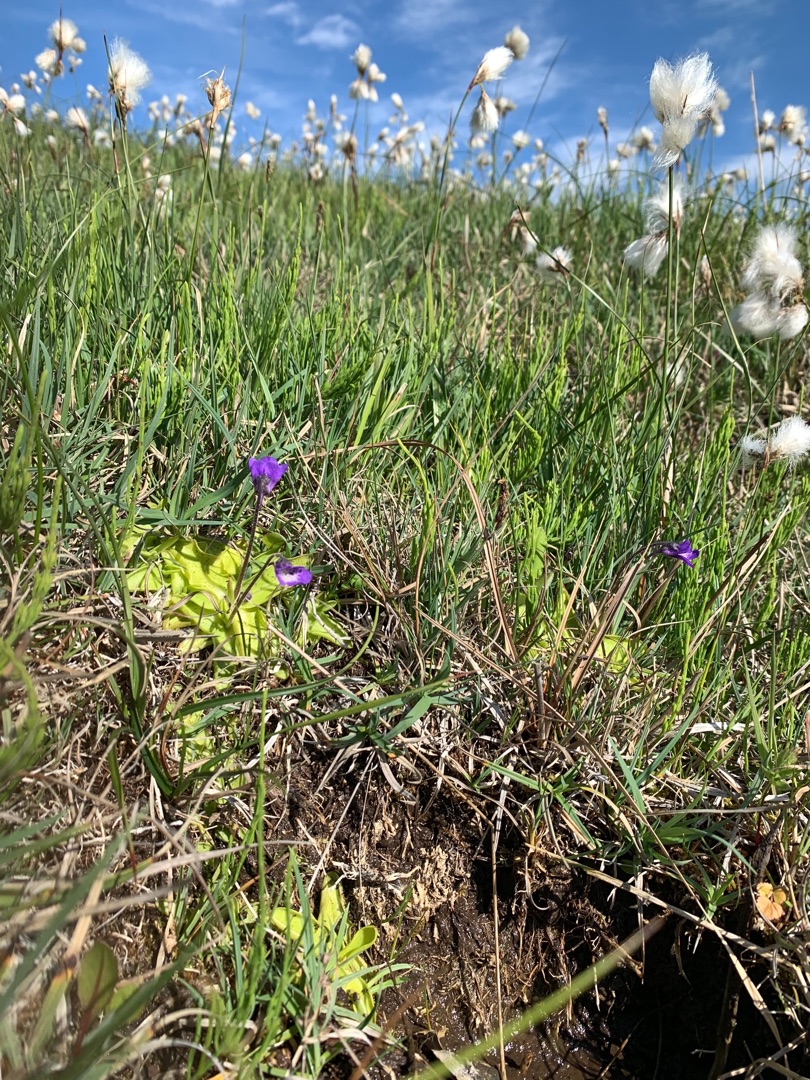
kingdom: Plantae
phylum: Tracheophyta
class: Magnoliopsida
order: Lamiales
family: Lentibulariaceae
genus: Pinguicula
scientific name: Pinguicula vulgaris
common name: Vibefedt
